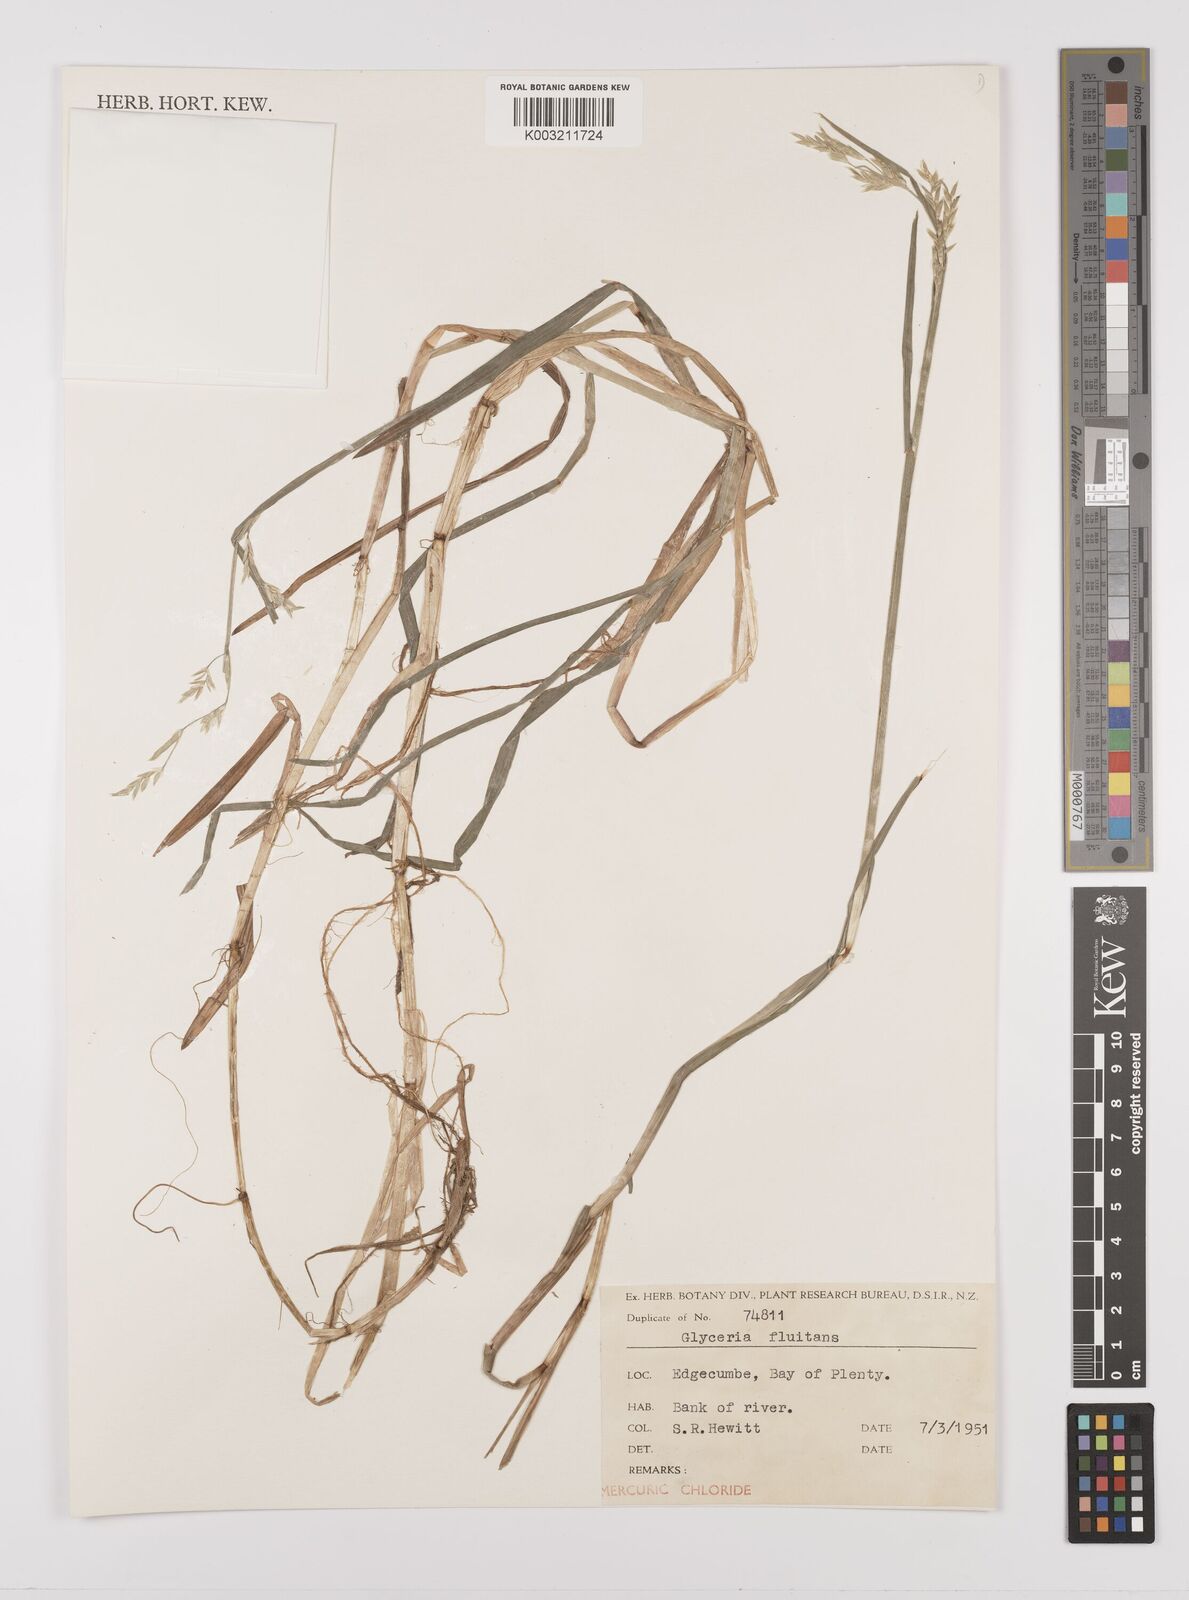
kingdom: Plantae
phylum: Tracheophyta
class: Liliopsida
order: Poales
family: Poaceae
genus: Glyceria
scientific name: Glyceria fluitans
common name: Floating sweet-grass
